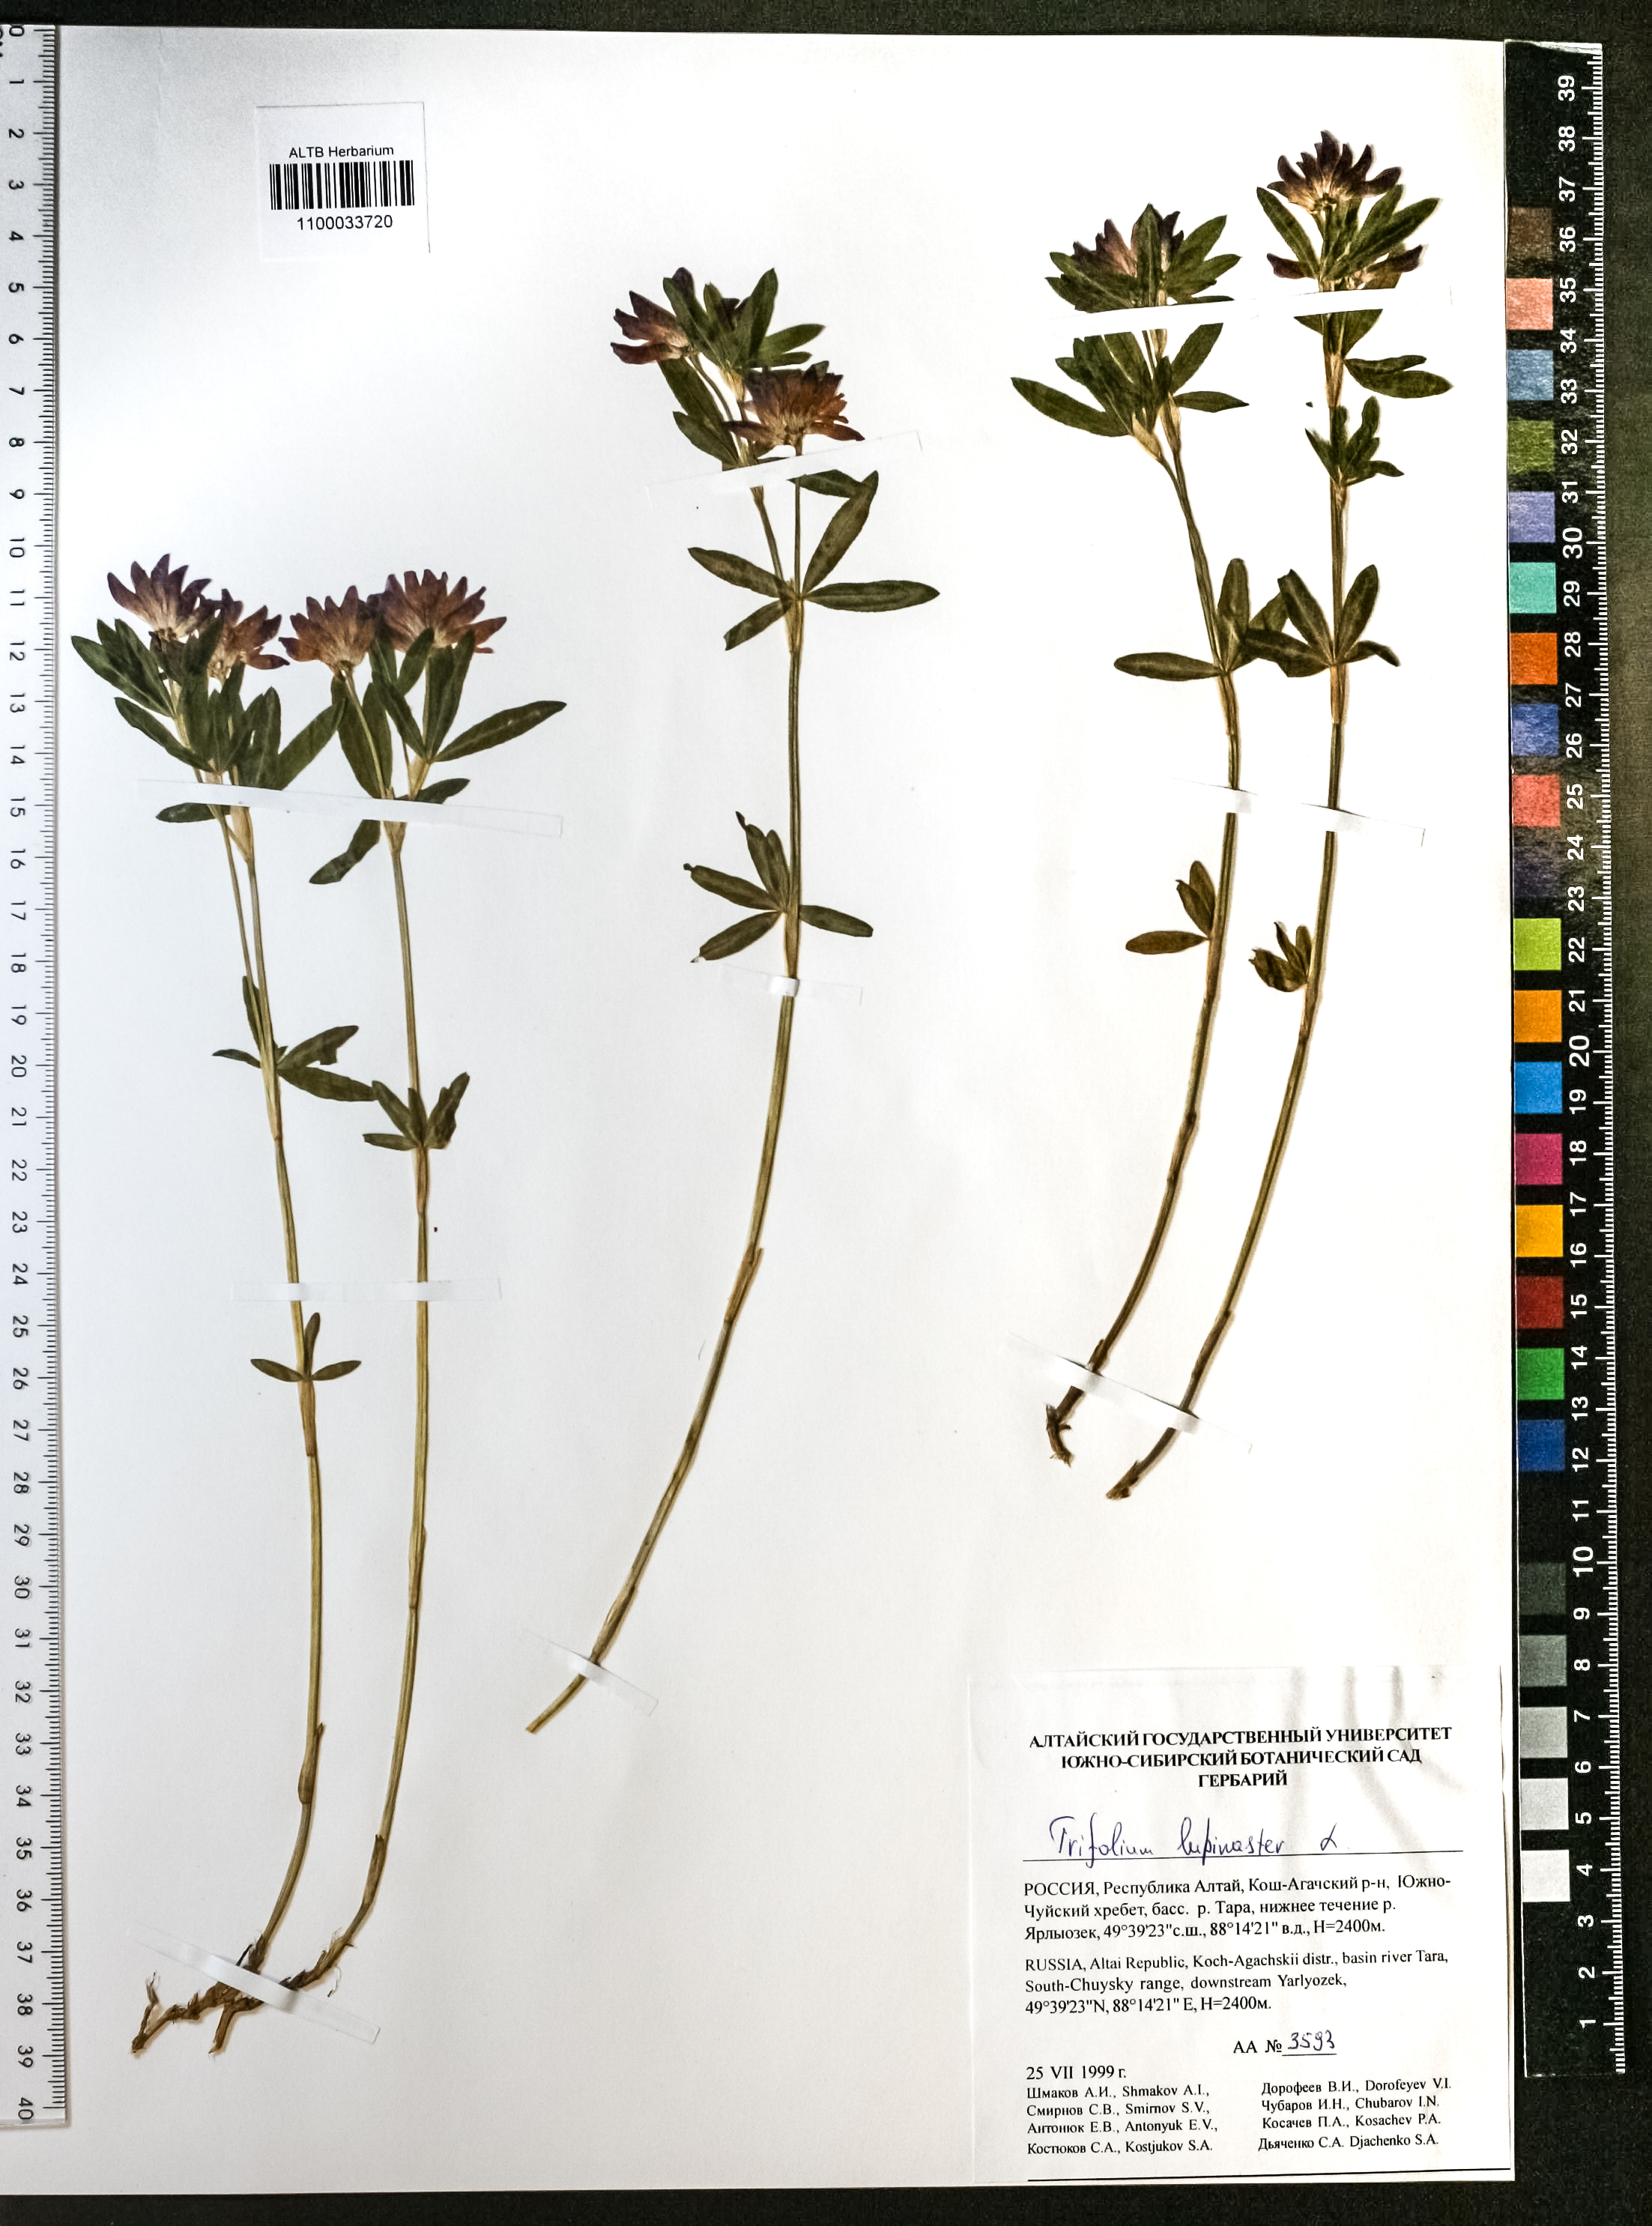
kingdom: Plantae
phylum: Tracheophyta
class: Magnoliopsida
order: Fabales
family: Fabaceae
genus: Trifolium
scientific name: Trifolium lupinaster
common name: Lupine clover
